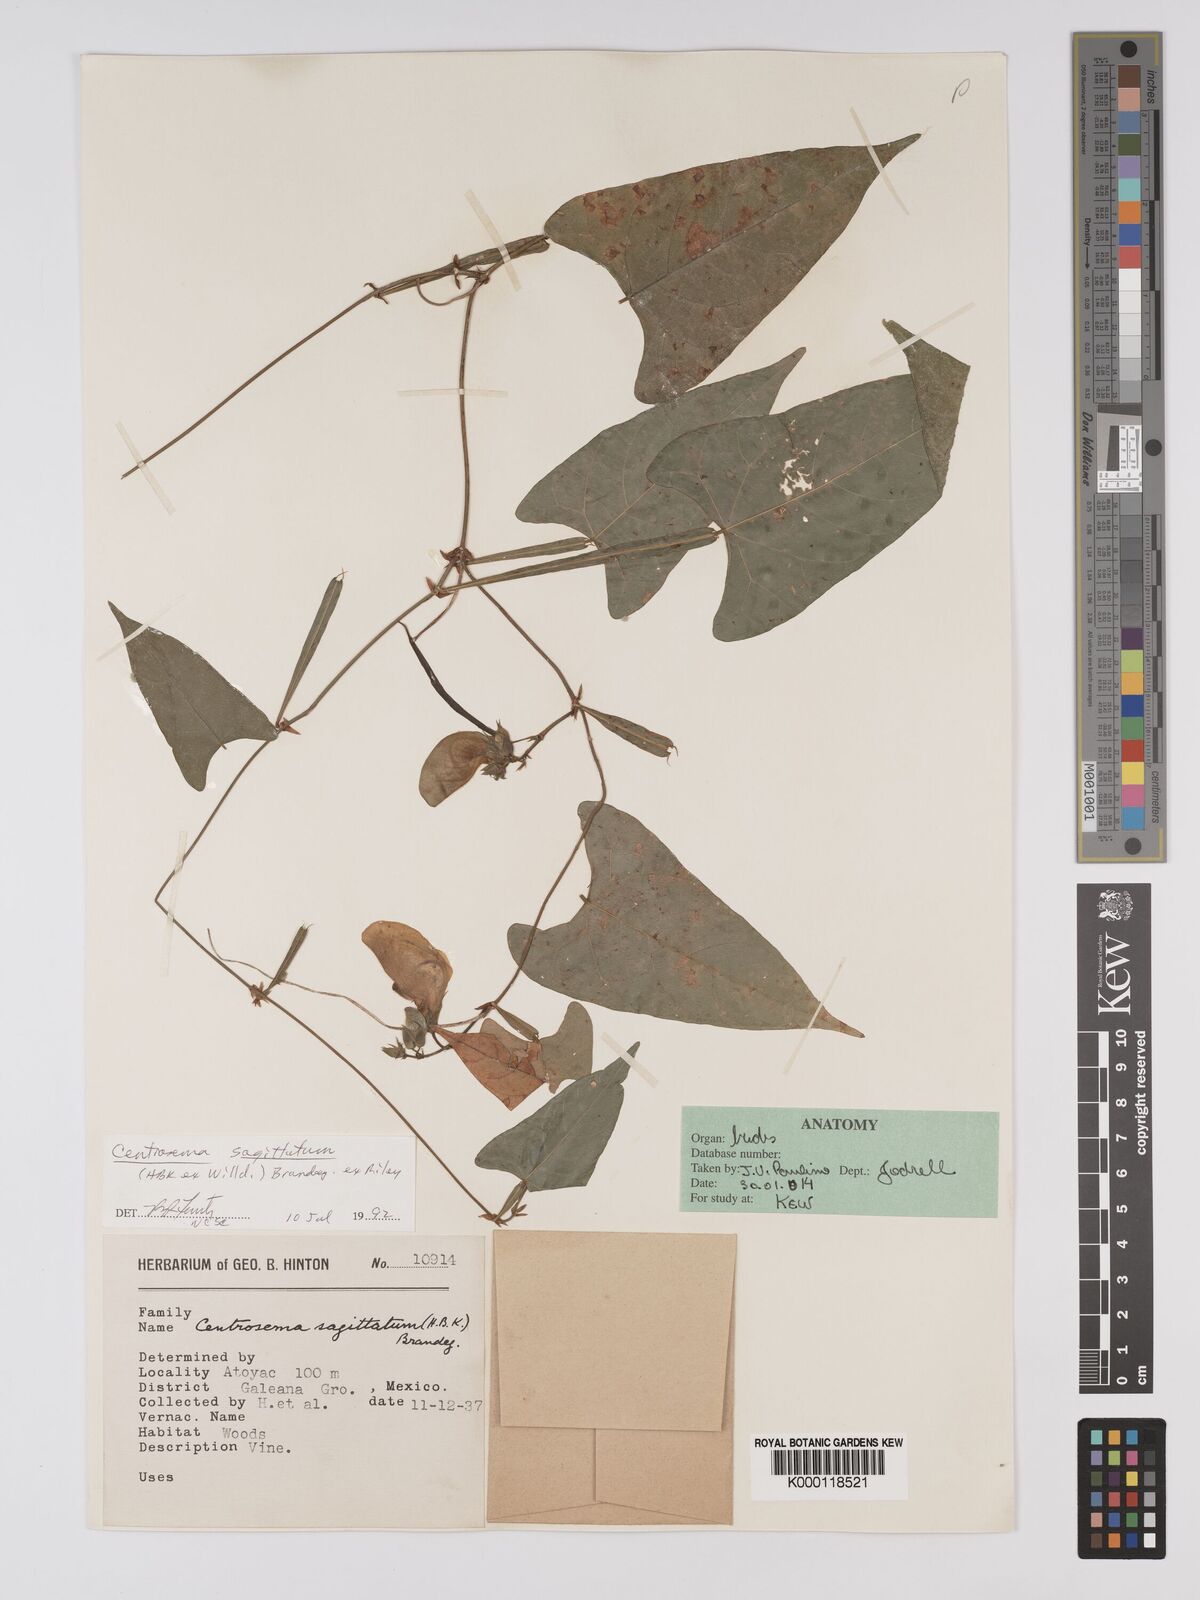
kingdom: Plantae
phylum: Tracheophyta
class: Magnoliopsida
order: Fabales
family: Fabaceae
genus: Centrosema
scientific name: Centrosema sagittatum
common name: Arrowleaf butterfly pea
